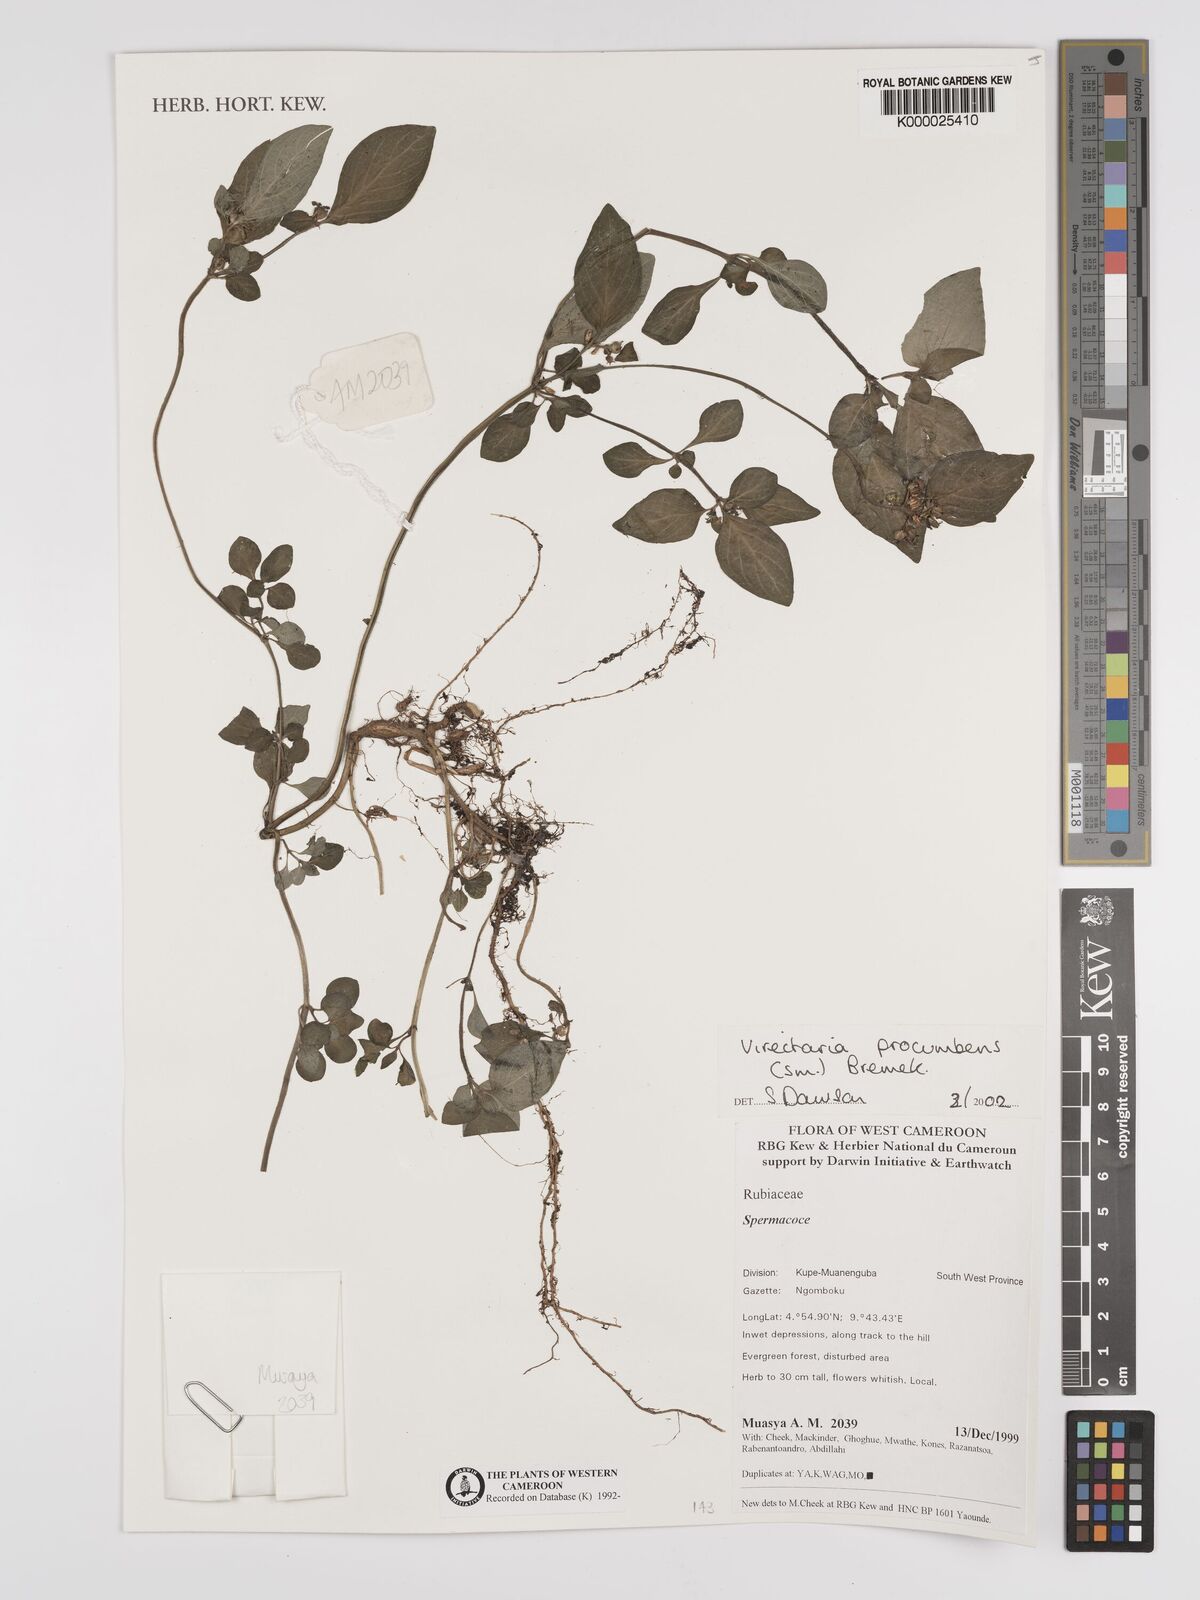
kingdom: Plantae
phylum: Tracheophyta
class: Magnoliopsida
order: Gentianales
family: Rubiaceae
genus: Virectaria
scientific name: Virectaria procumbens
